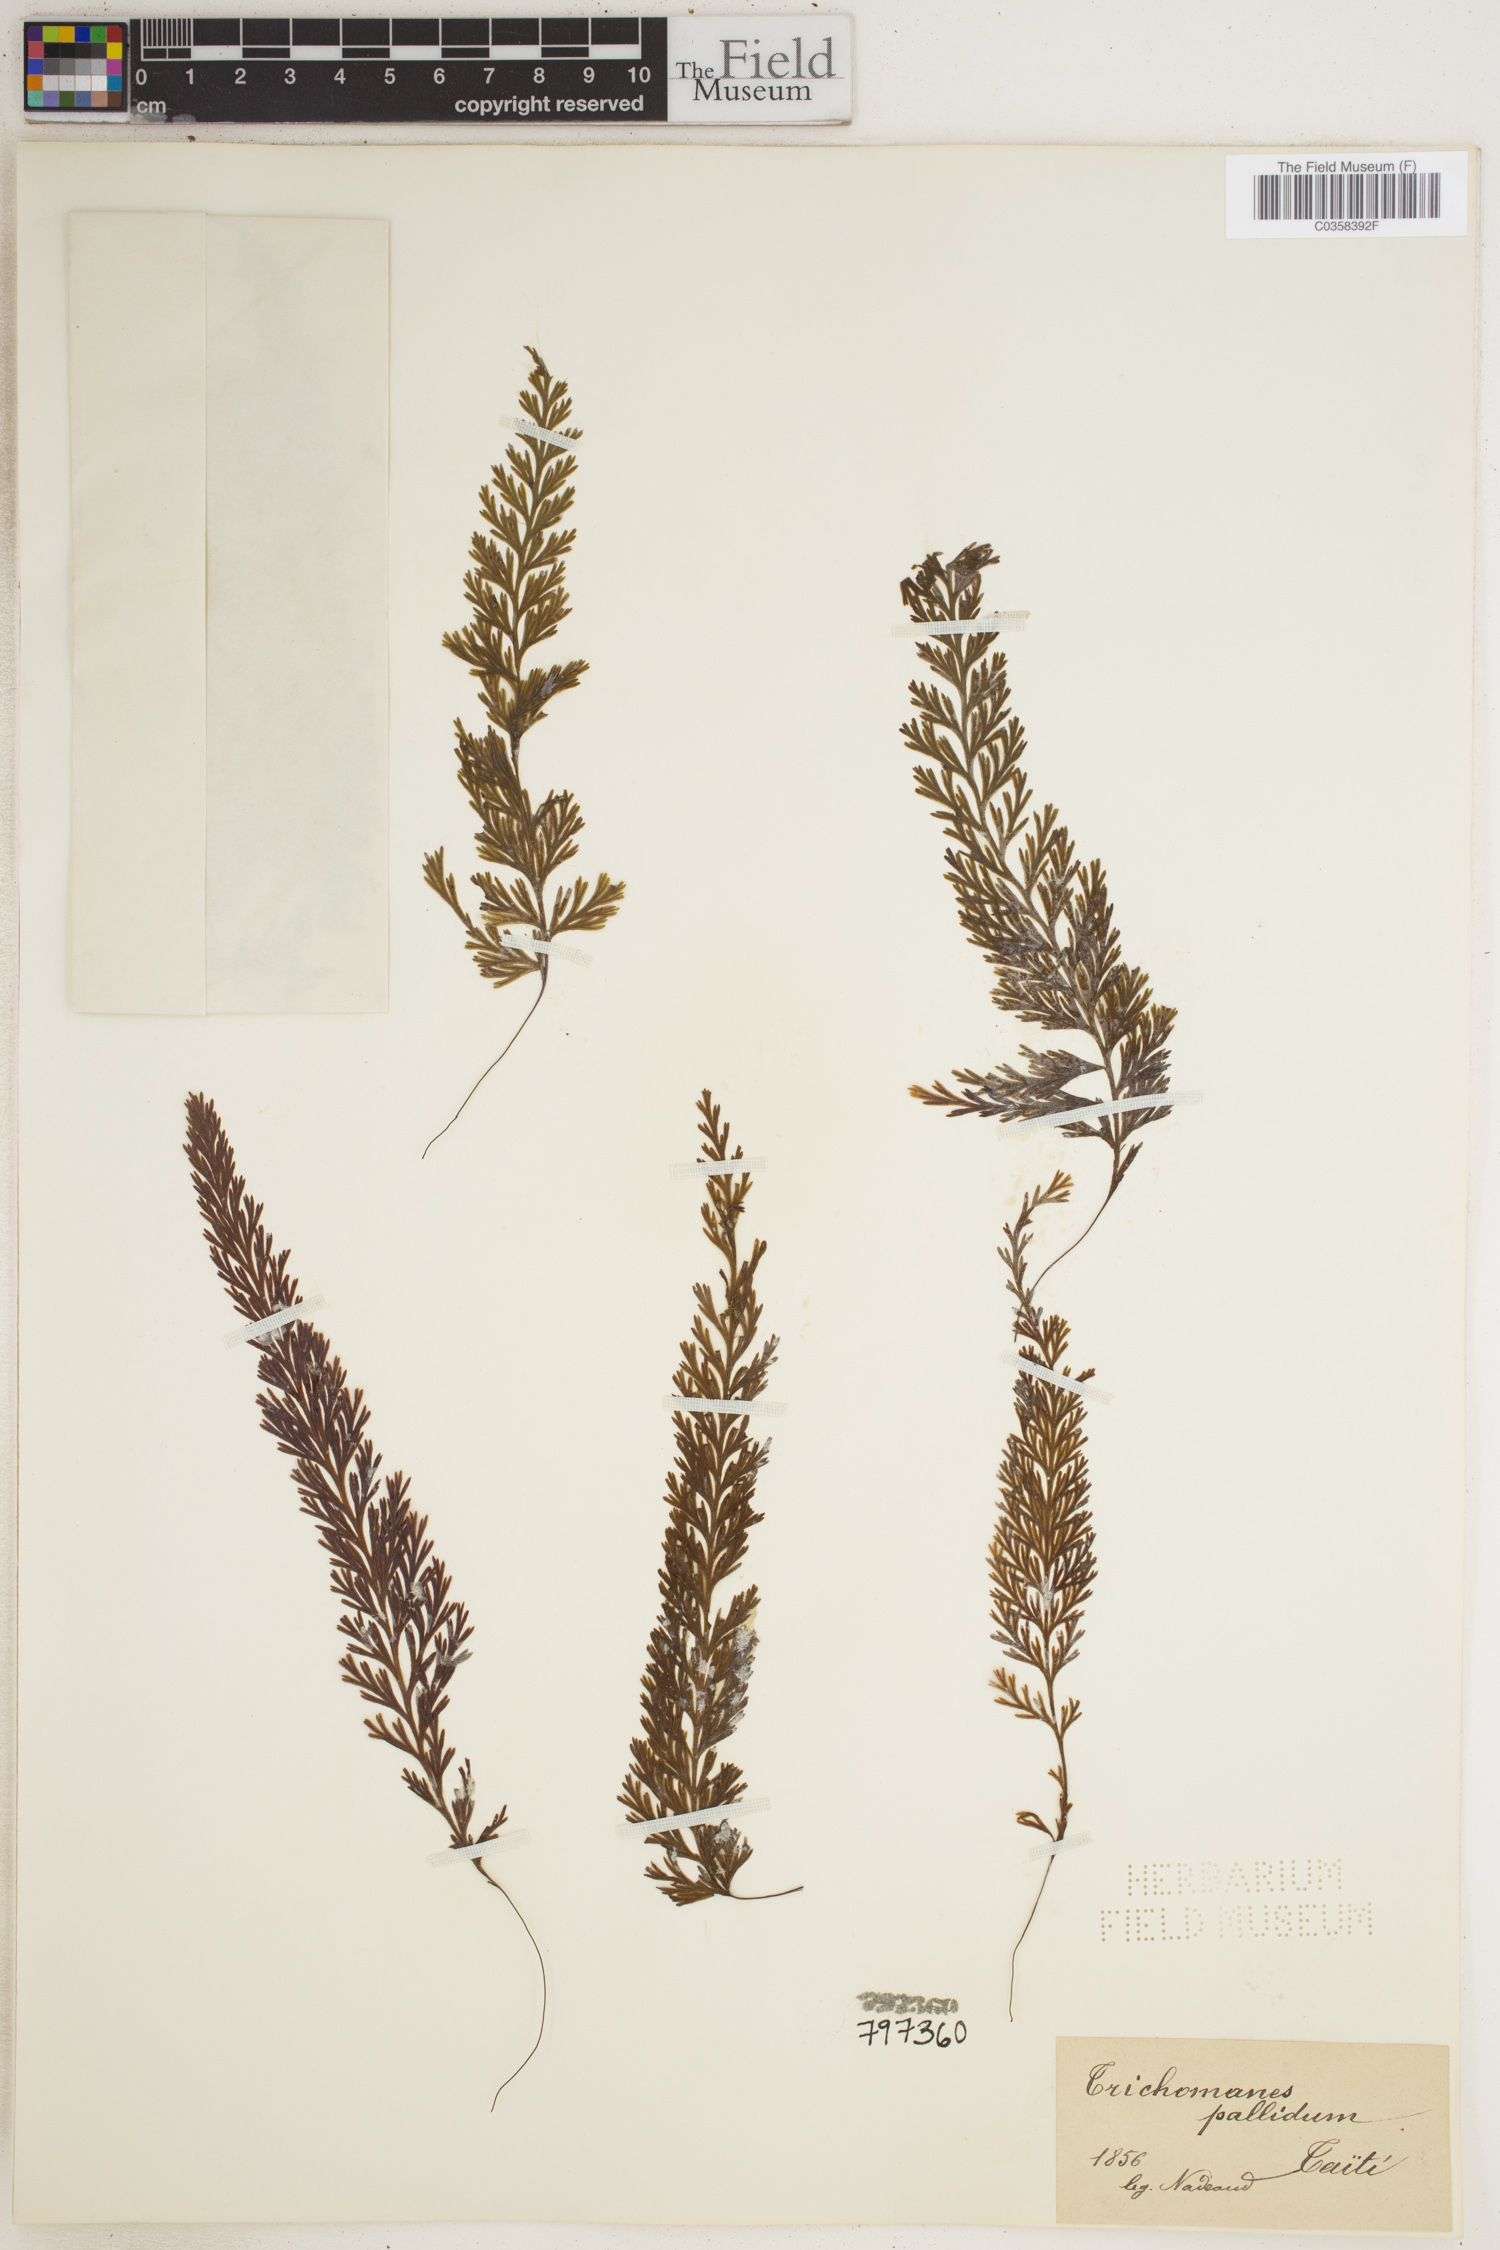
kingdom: Plantae
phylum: Tracheophyta
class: Polypodiopsida
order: Hymenophyllales
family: Hymenophyllaceae
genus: Hymenophyllum
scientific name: Hymenophyllum pallidum
